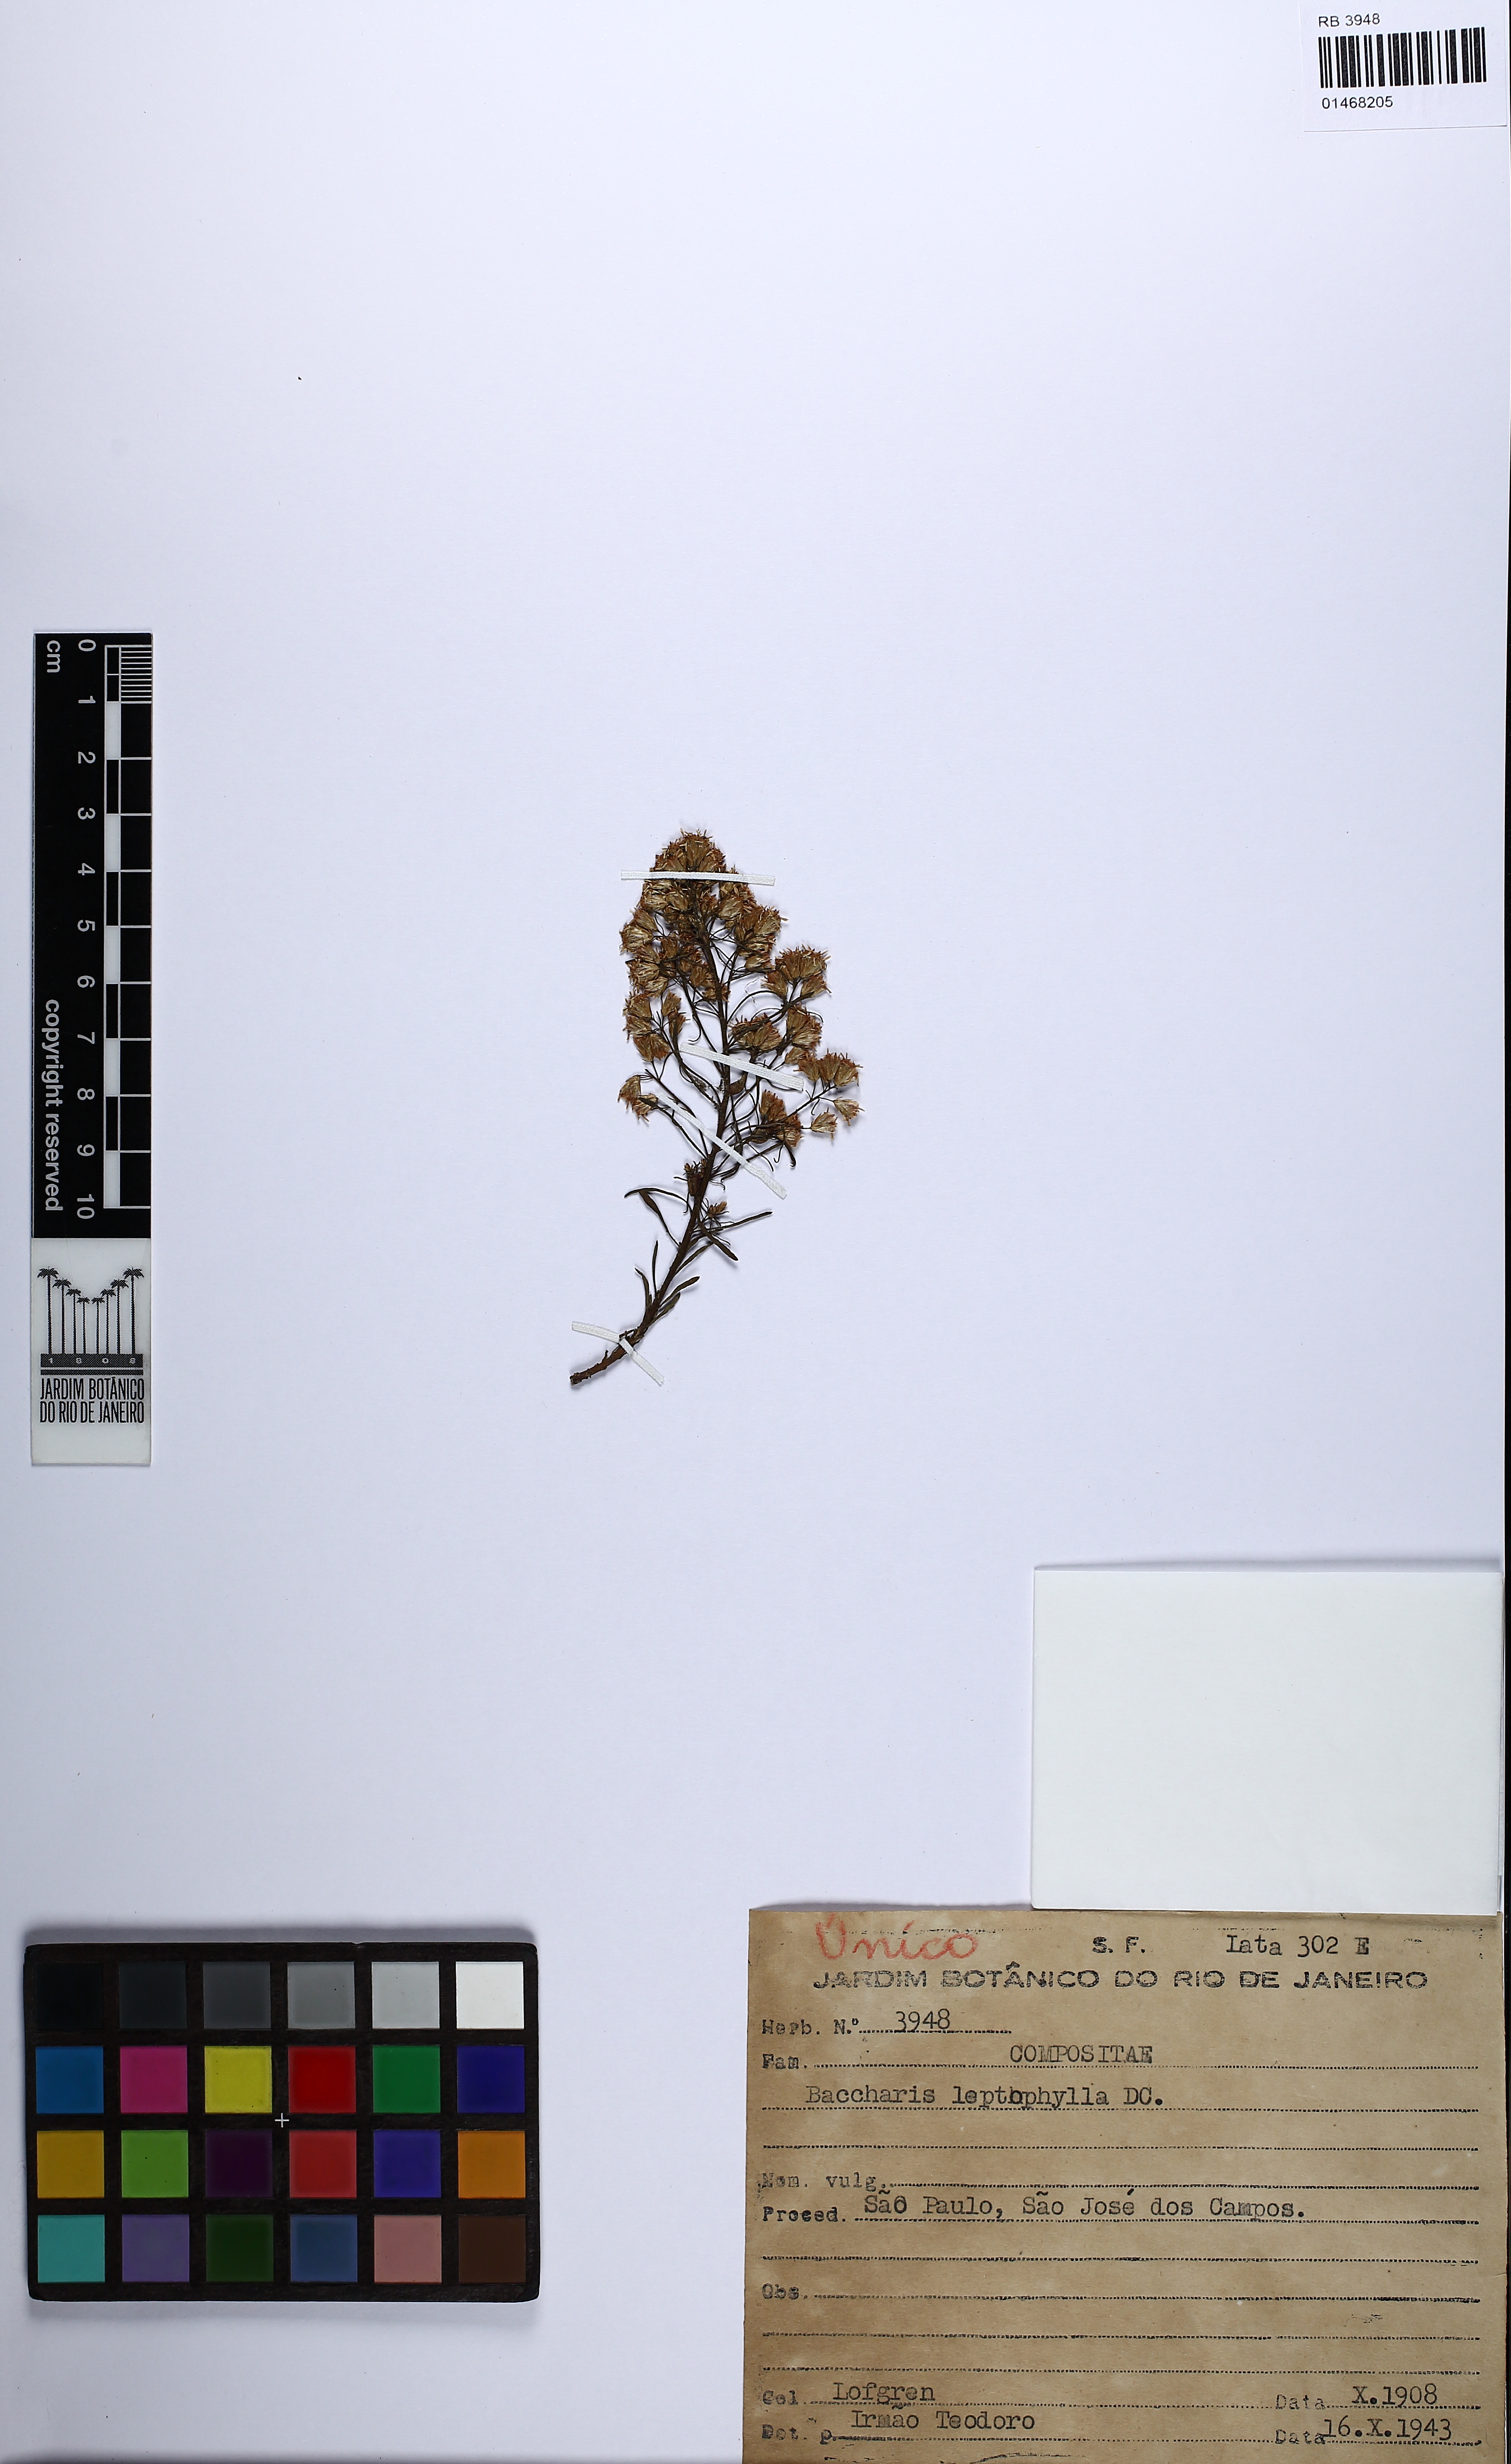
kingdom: Plantae
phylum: Tracheophyta
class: Magnoliopsida
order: Asterales
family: Asteraceae
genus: Baccharis
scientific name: Baccharis leptocephala
